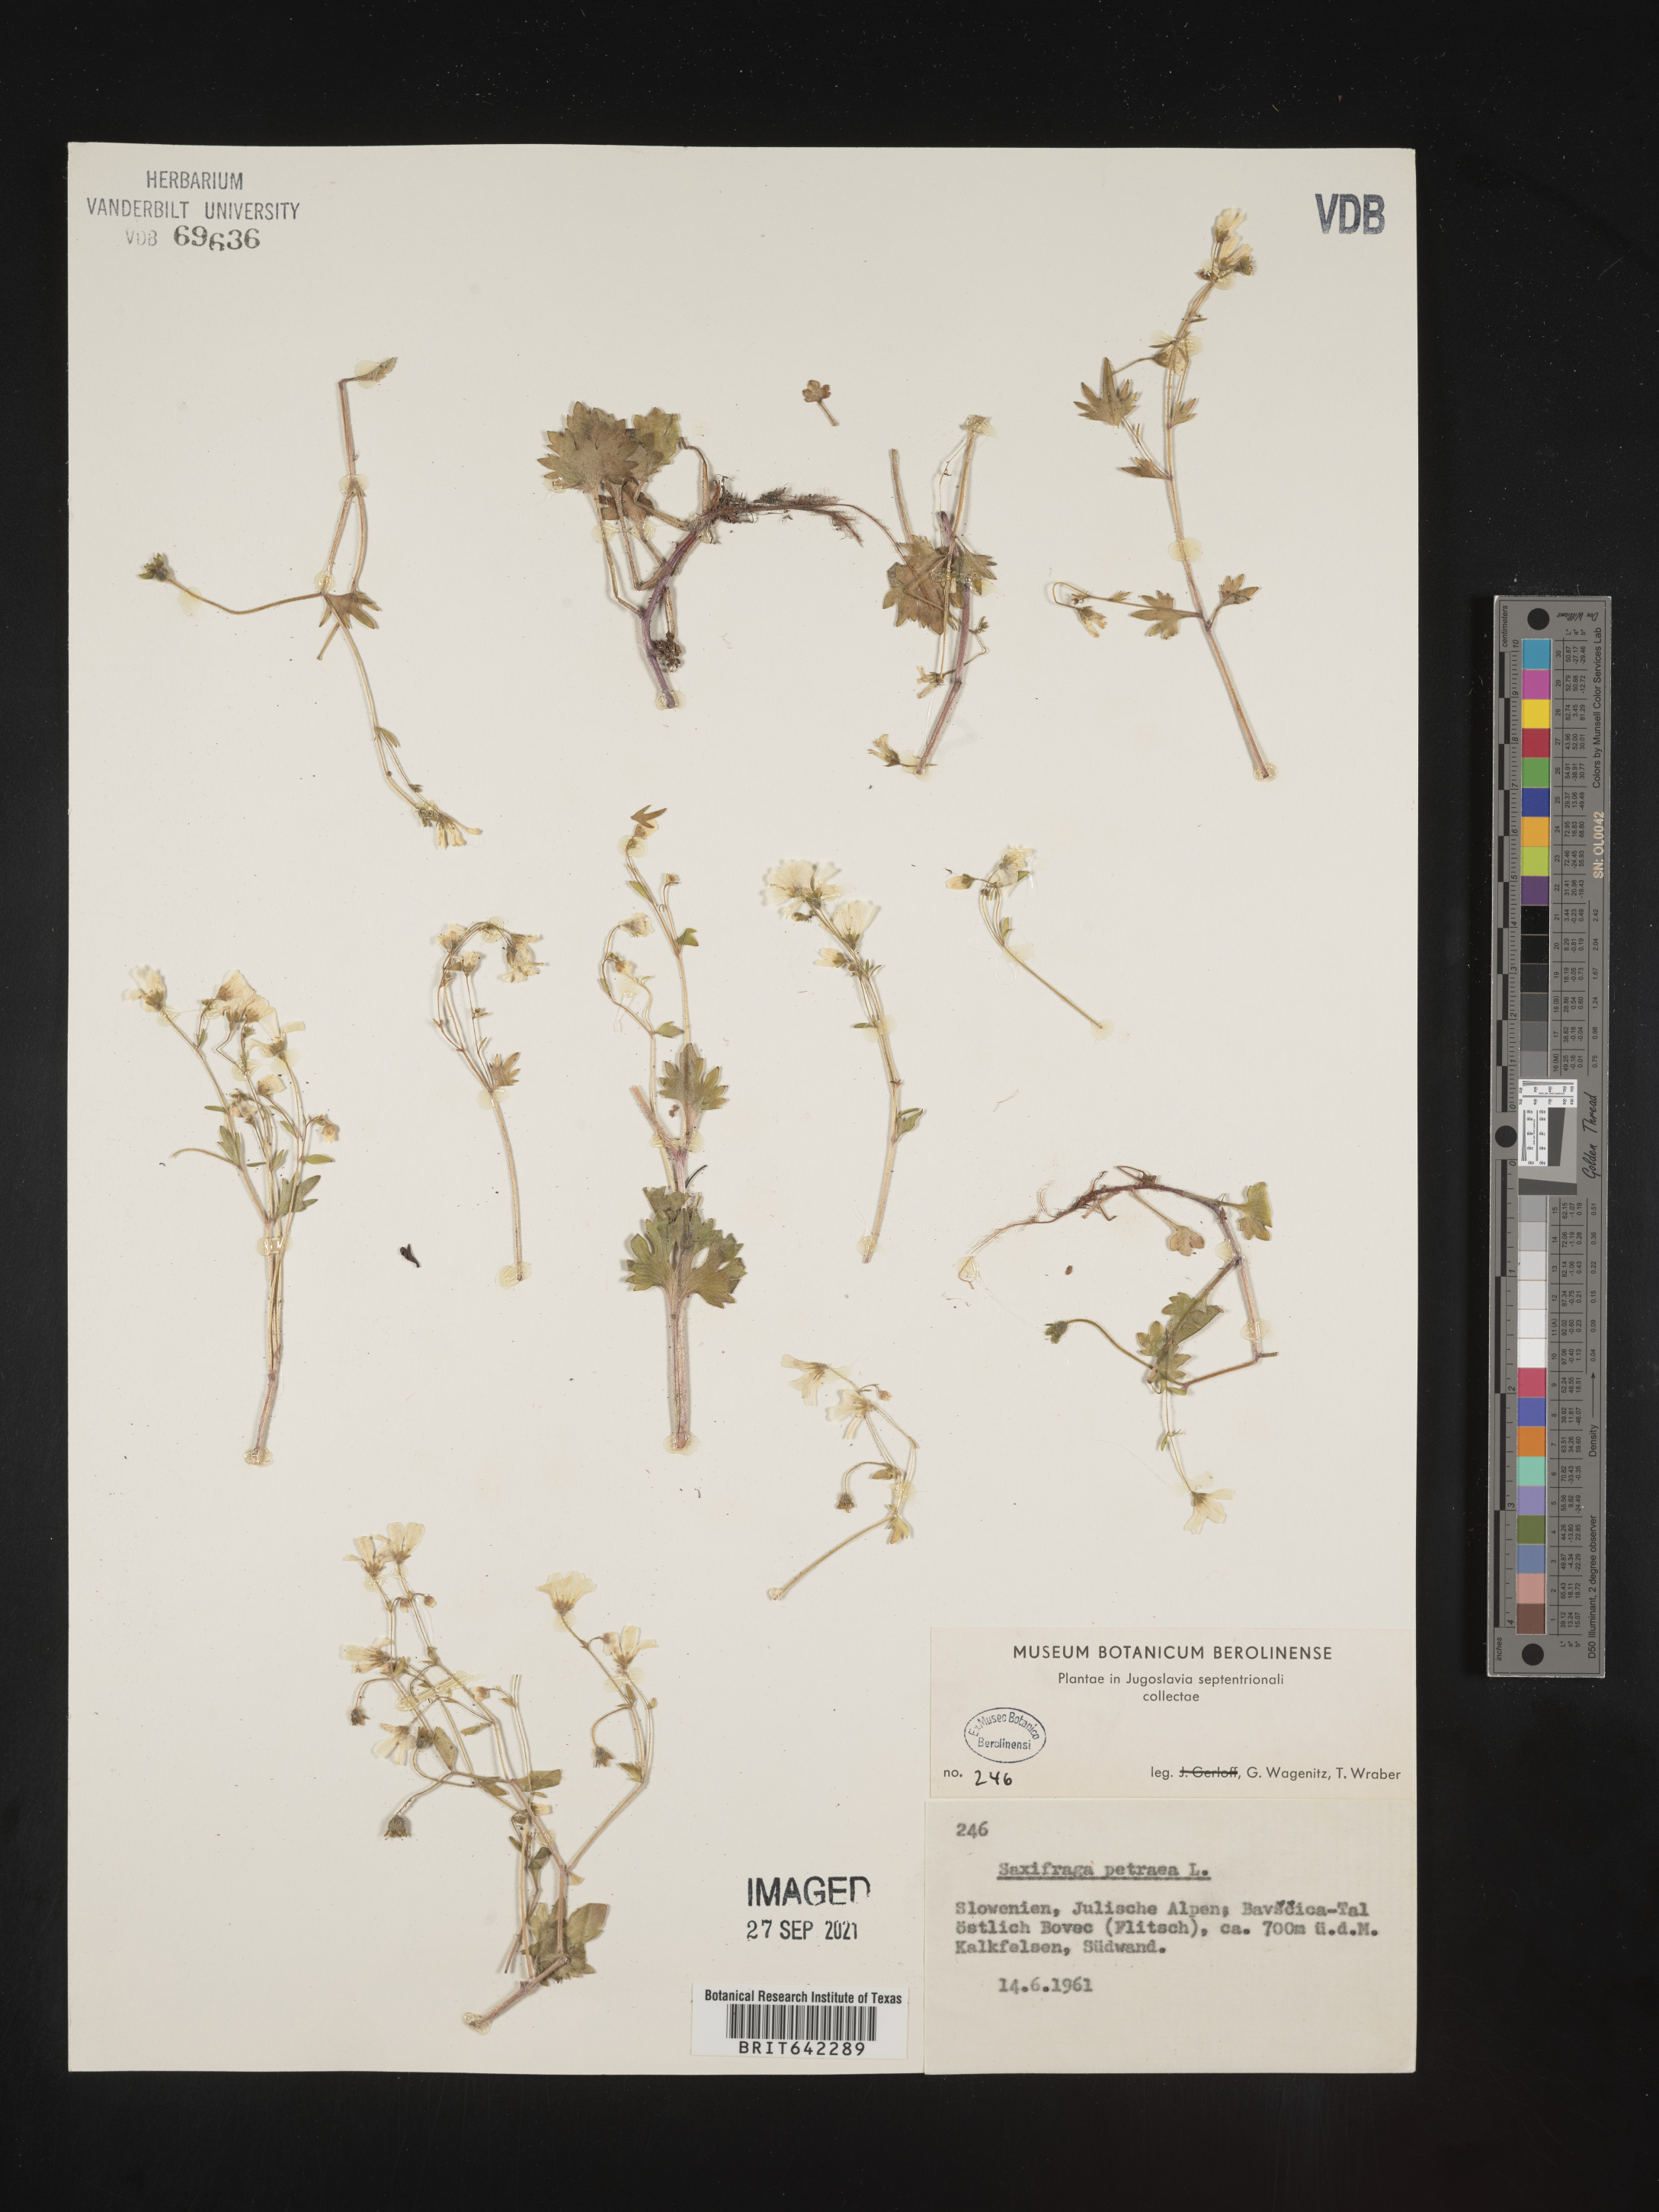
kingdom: Plantae
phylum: Tracheophyta
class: Magnoliopsida
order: Saxifragales
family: Saxifragaceae
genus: Saxifraga
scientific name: Saxifraga
